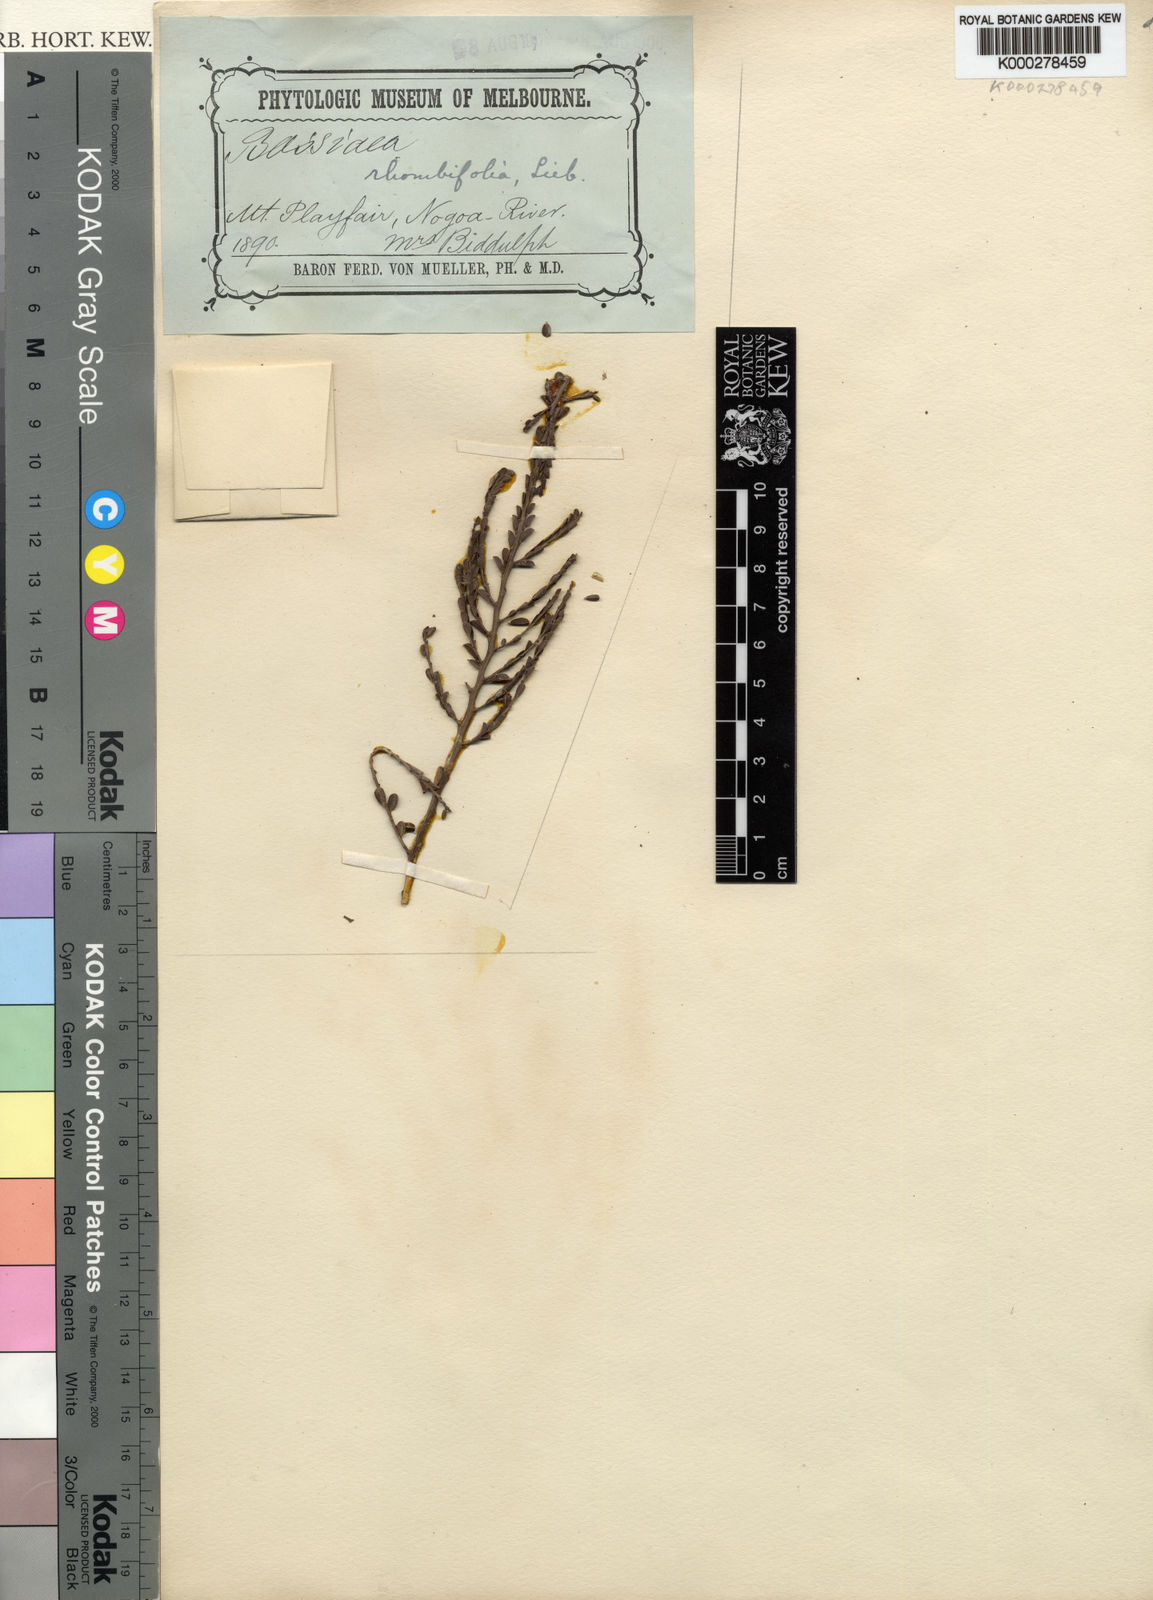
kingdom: Plantae
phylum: Tracheophyta
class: Magnoliopsida
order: Fabales
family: Fabaceae
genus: Bossiaea
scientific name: Bossiaea rhombifolia
